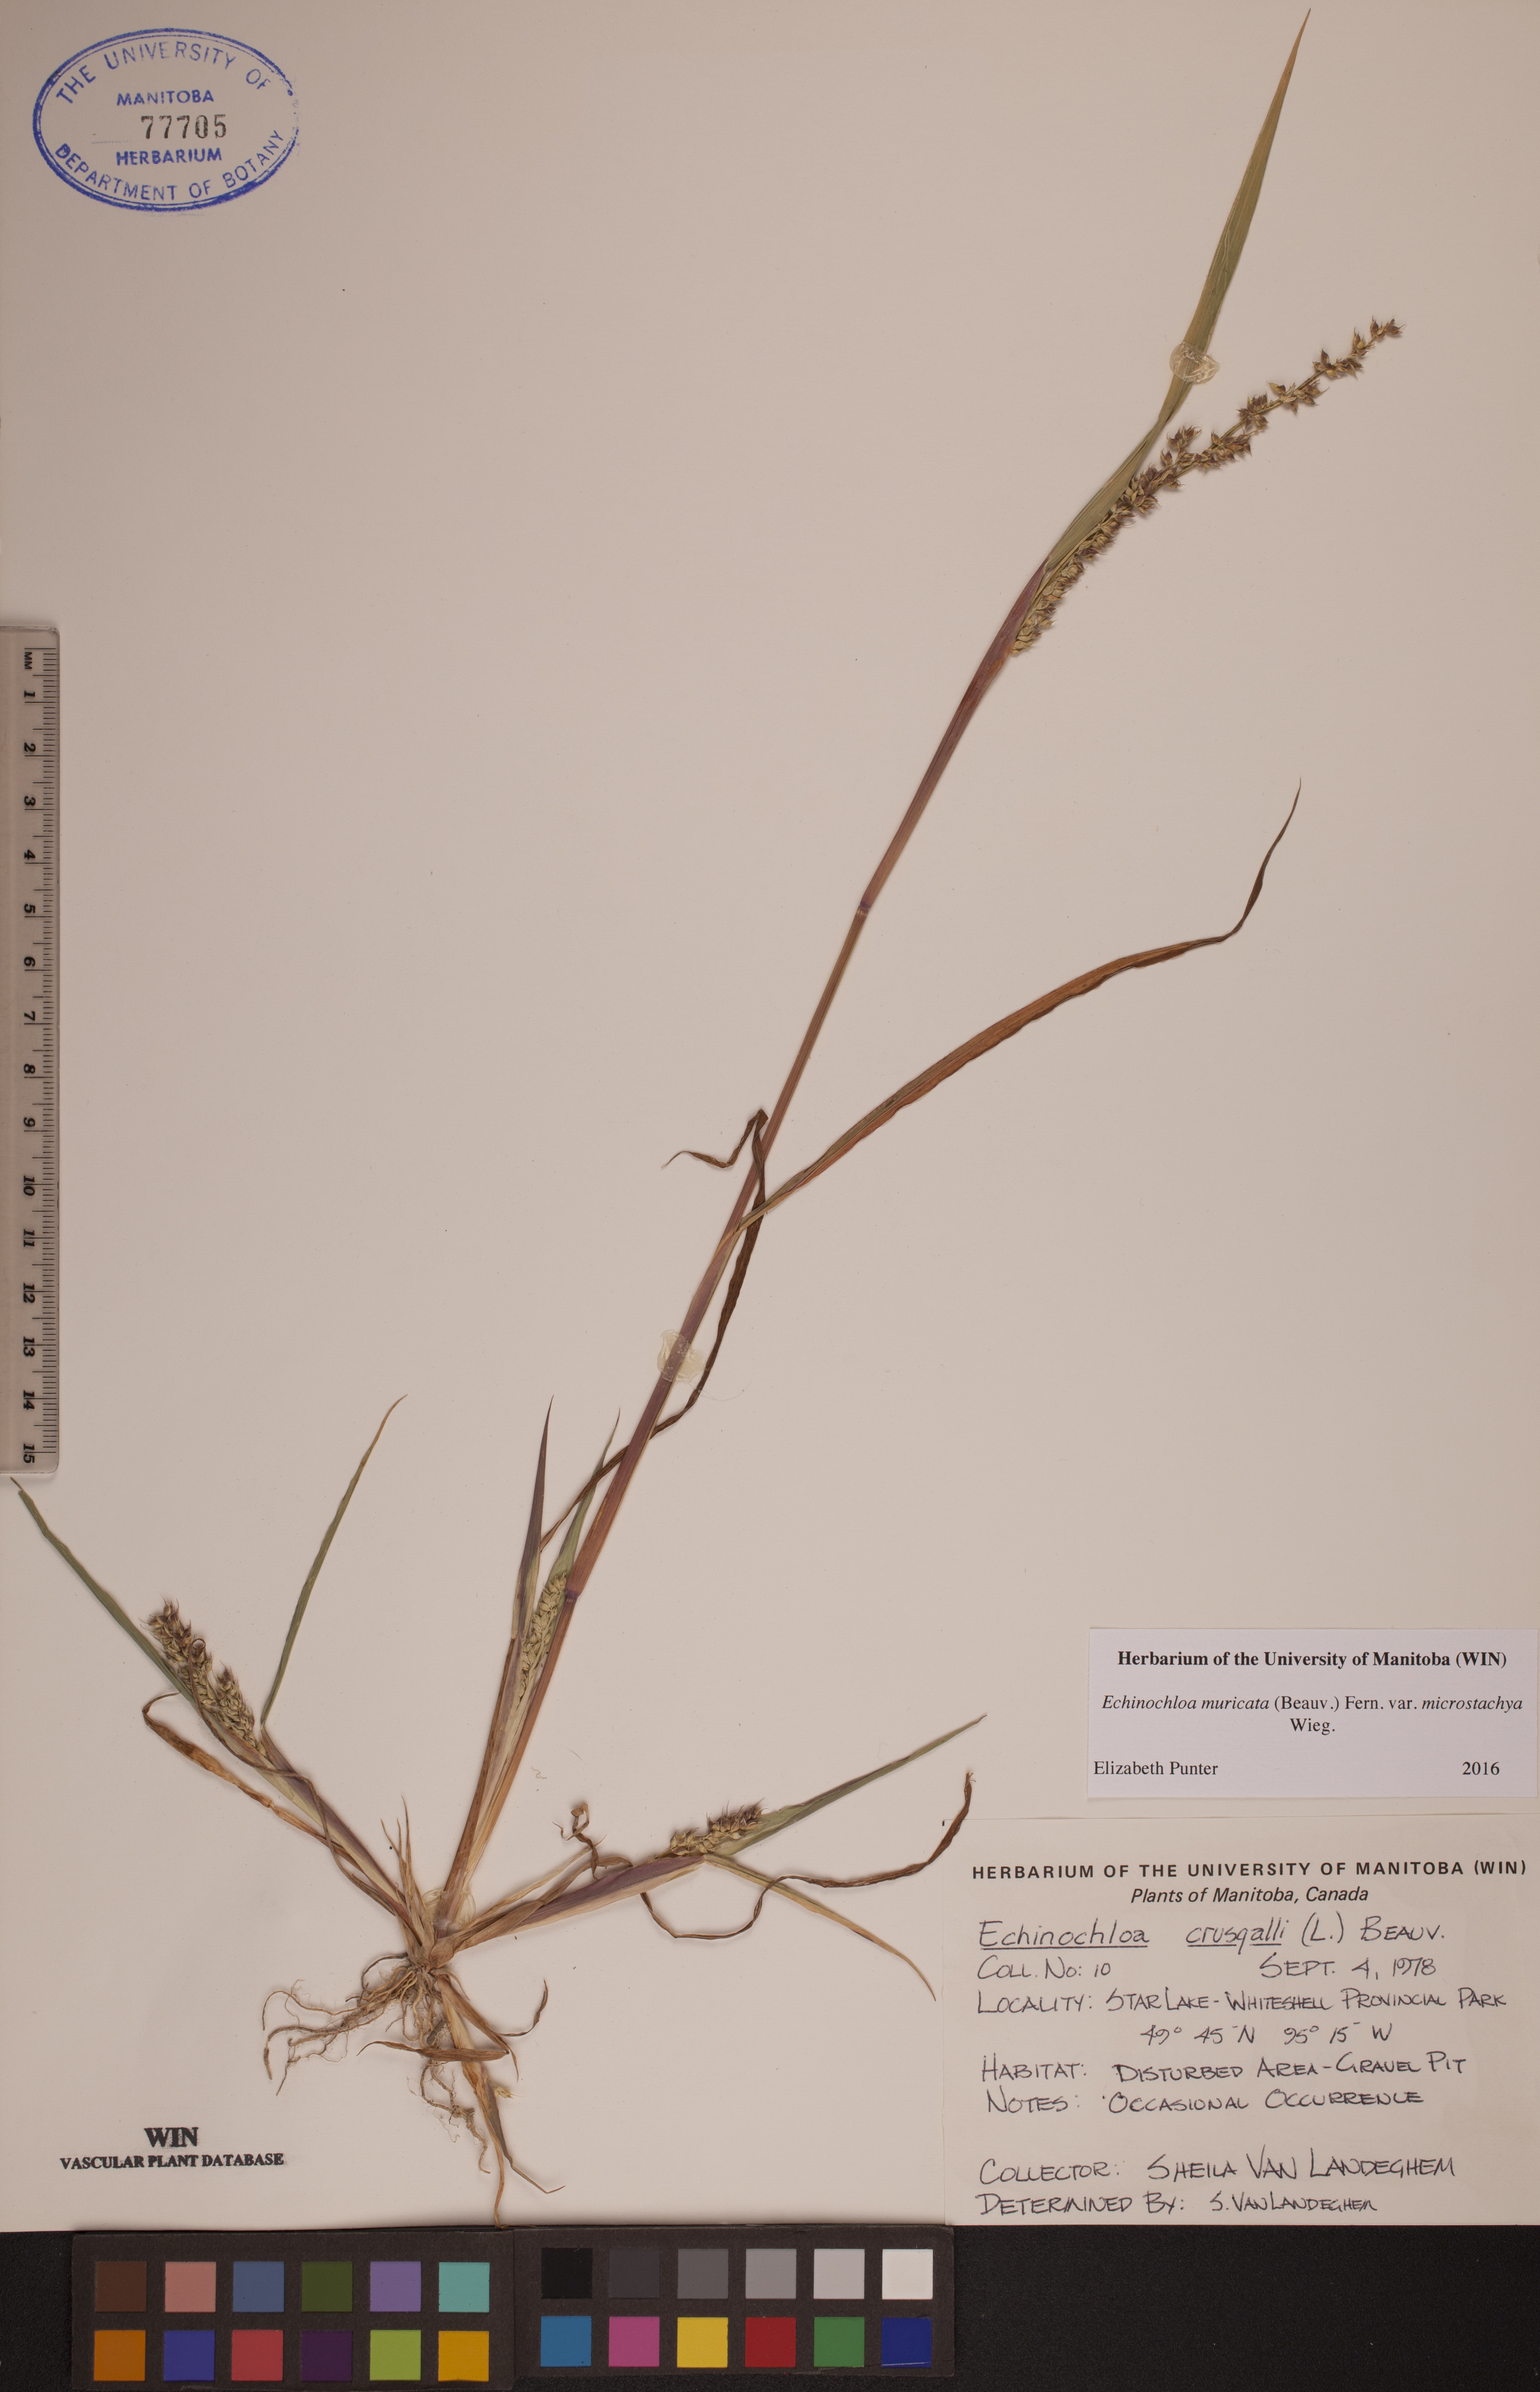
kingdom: Plantae
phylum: Tracheophyta
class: Liliopsida
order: Poales
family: Poaceae
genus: Echinochloa
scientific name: Echinochloa muricata
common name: American barnyard grass
